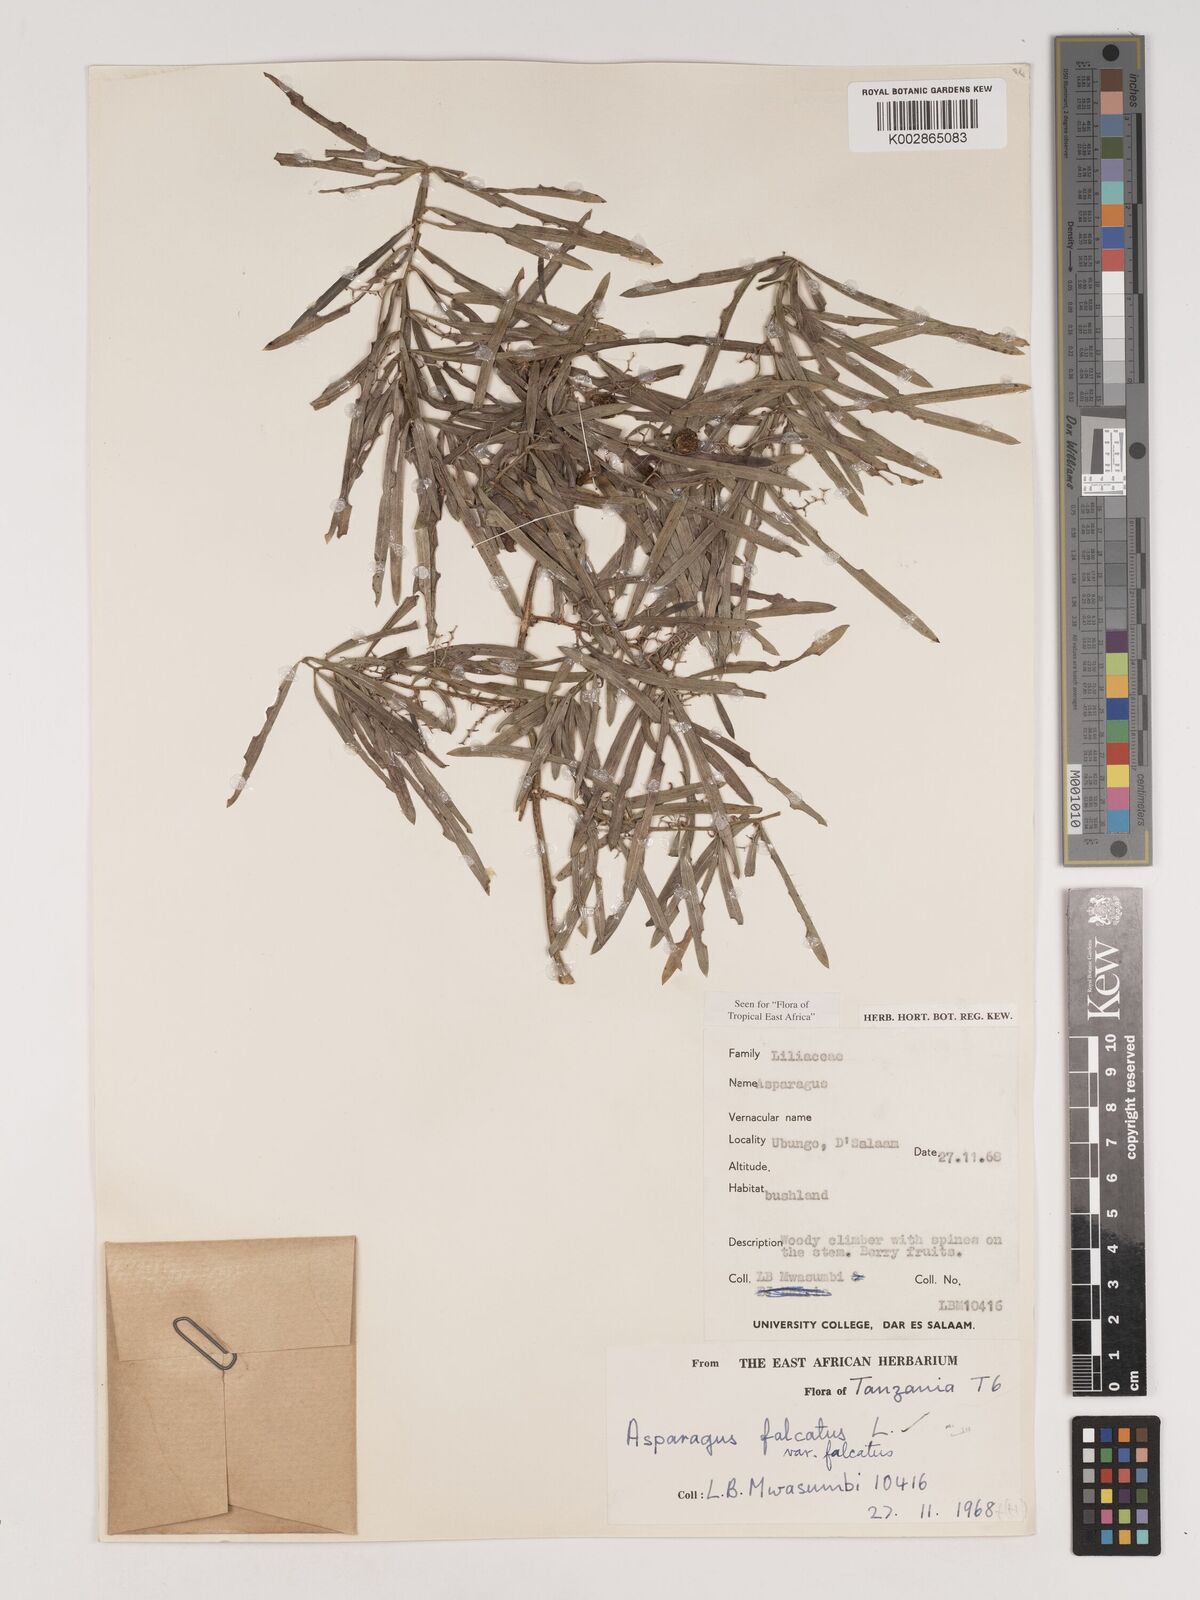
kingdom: Plantae
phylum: Tracheophyta
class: Liliopsida
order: Asparagales
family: Asparagaceae
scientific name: Asparagaceae
